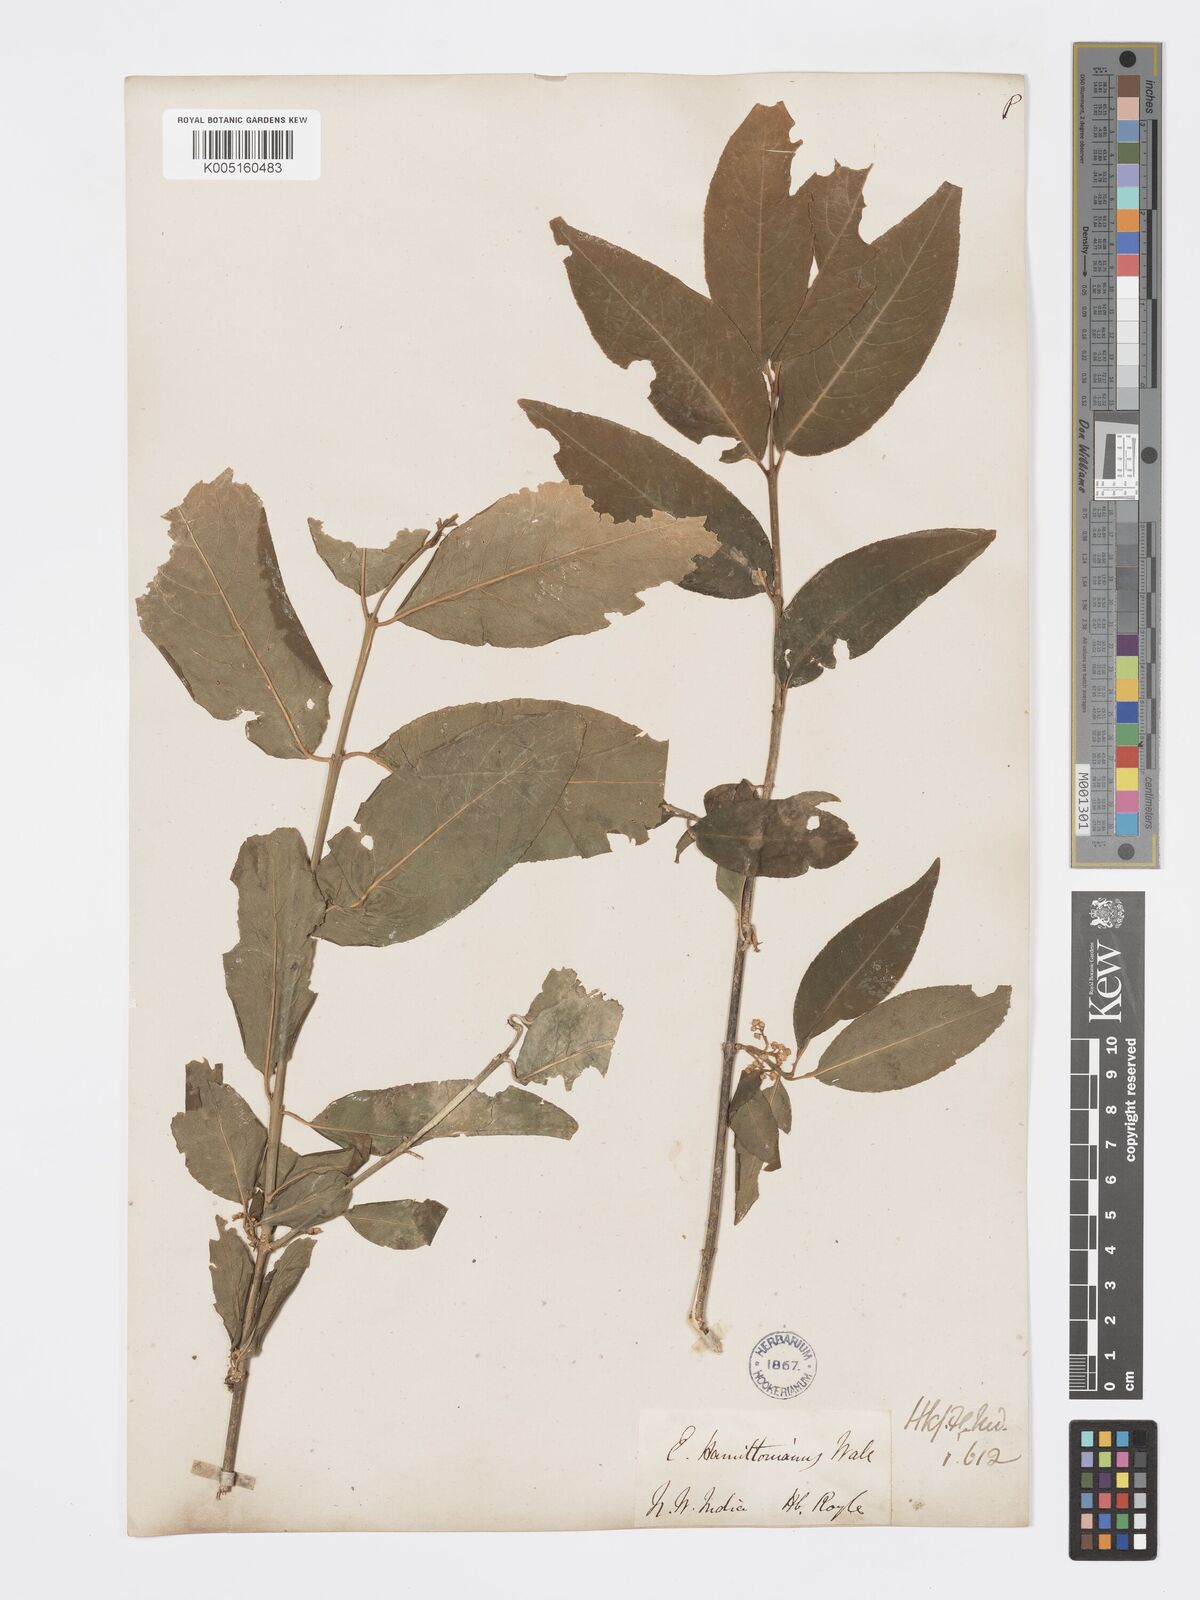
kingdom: Plantae
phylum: Tracheophyta
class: Magnoliopsida
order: Celastrales
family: Celastraceae
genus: Euonymus
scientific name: Euonymus
